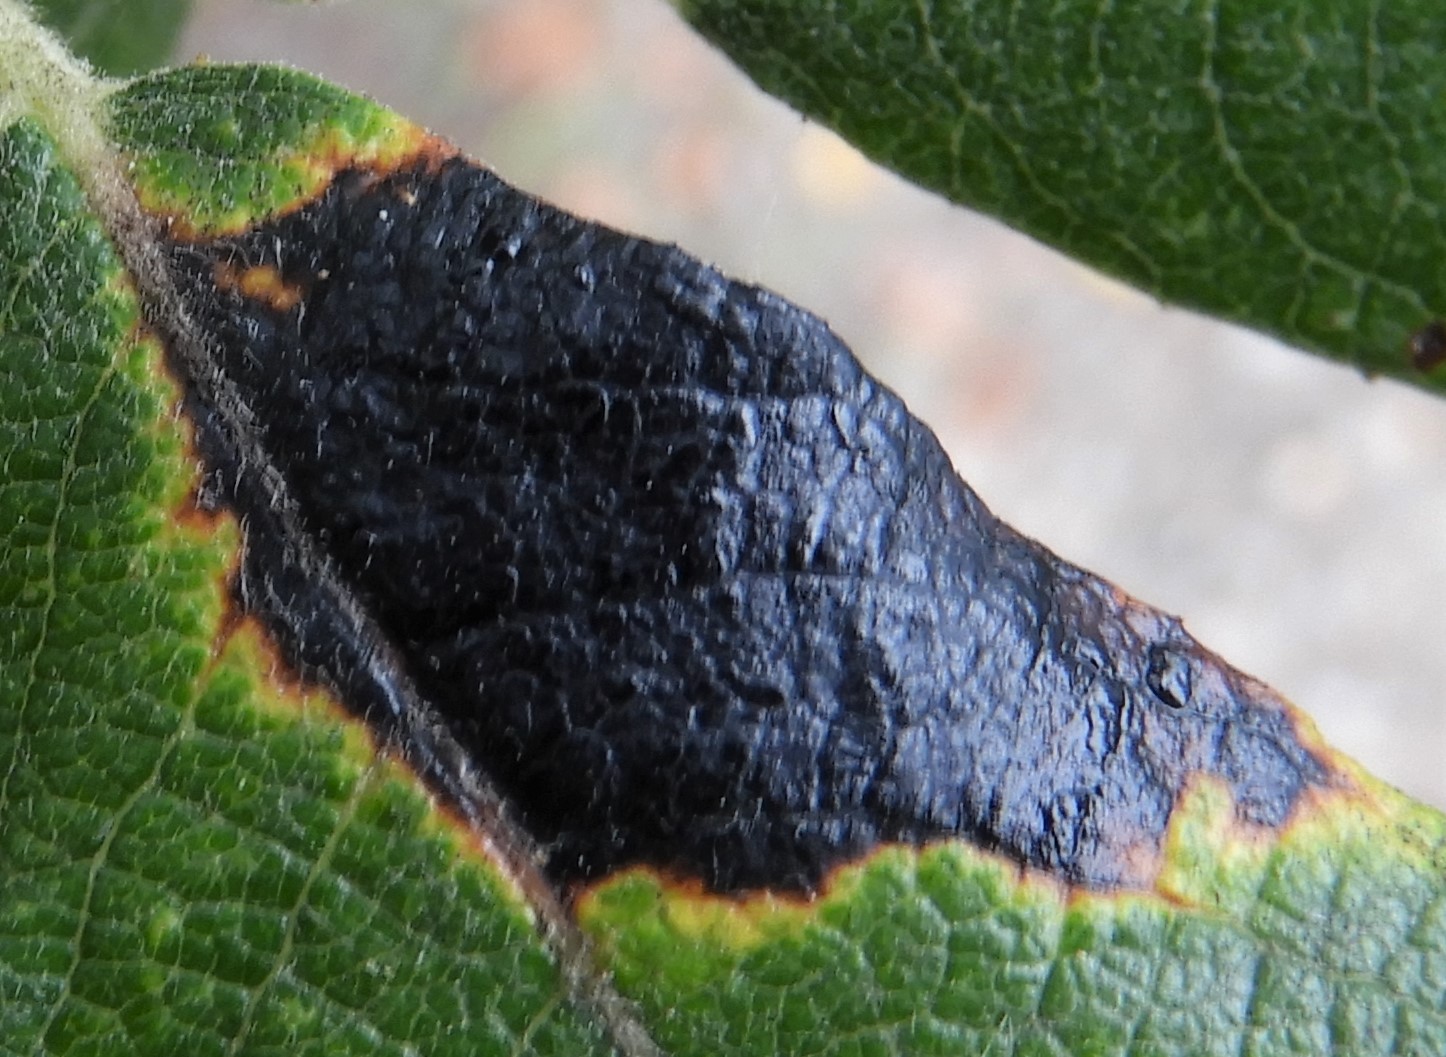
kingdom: Fungi
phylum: Ascomycota
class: Leotiomycetes
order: Rhytismatales
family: Rhytismataceae
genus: Rhytisma
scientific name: Rhytisma salicinum
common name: pile-rynkeplet
